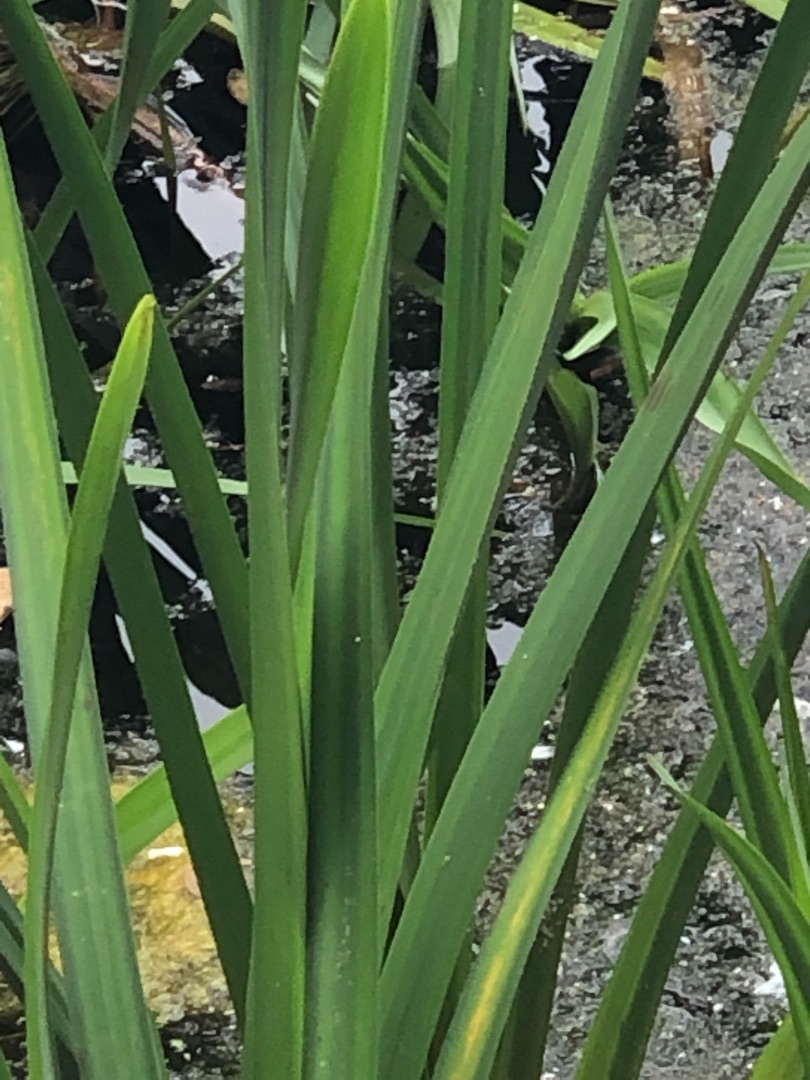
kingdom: Plantae
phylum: Tracheophyta
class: Liliopsida
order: Poales
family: Typhaceae
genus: Sparganium
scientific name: Sparganium erectum
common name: Grenet pindsvineknop
